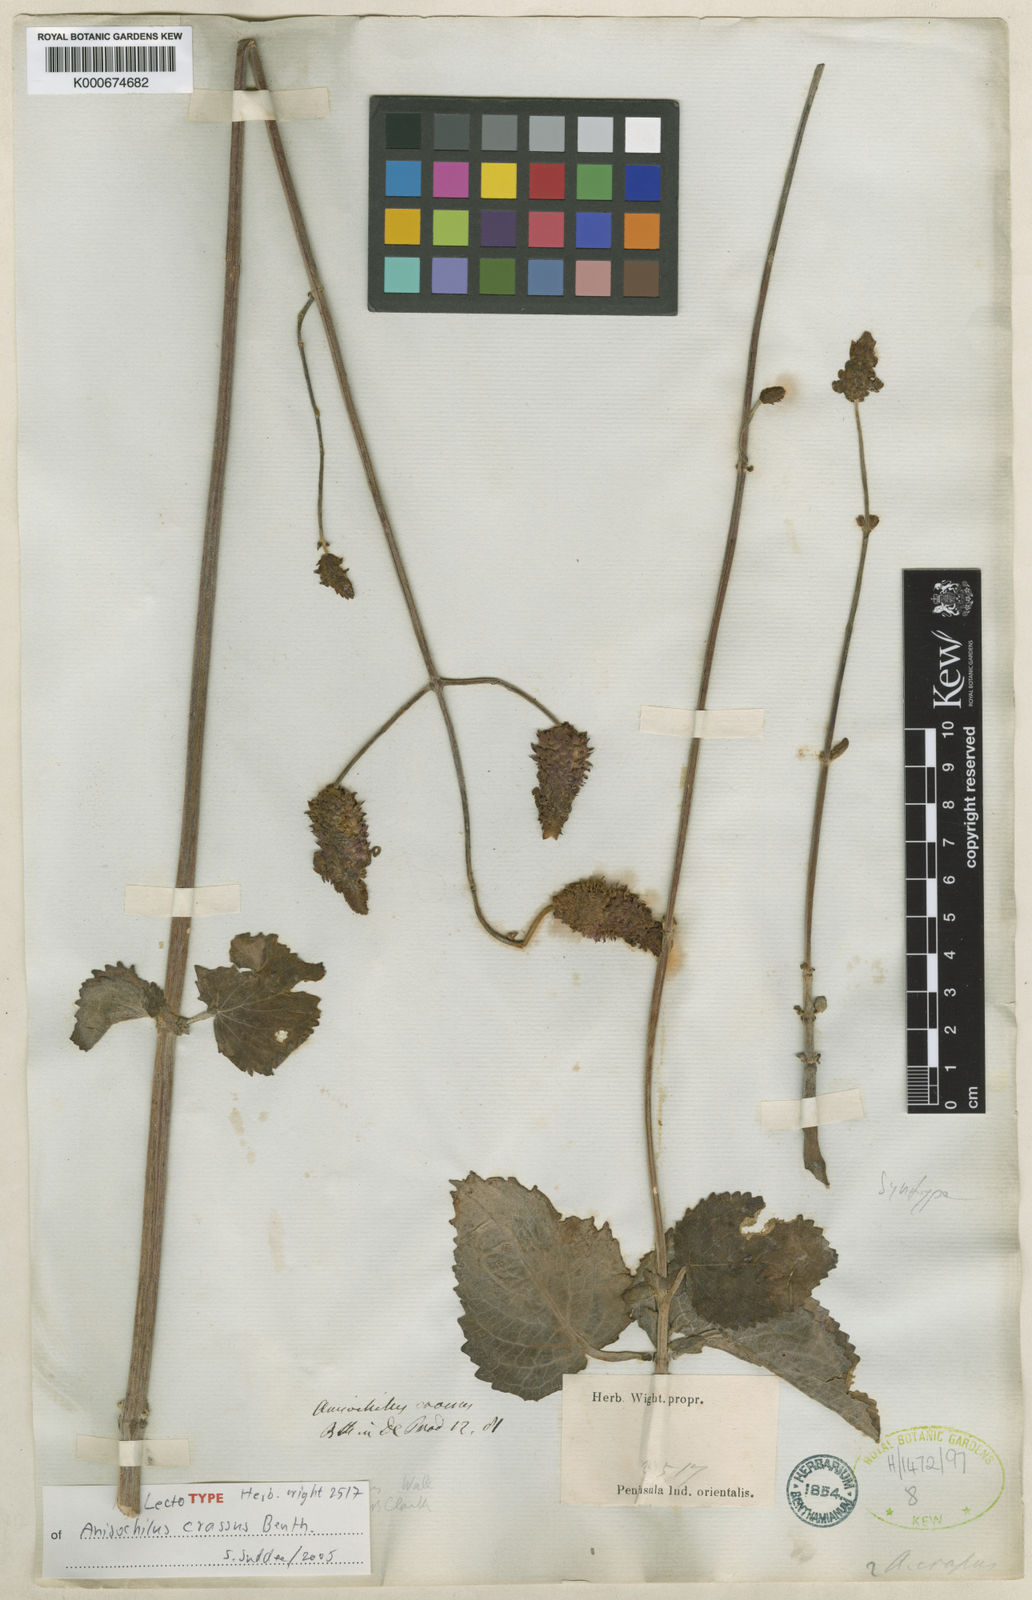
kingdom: Plantae
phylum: Tracheophyta
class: Magnoliopsida
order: Lamiales
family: Lamiaceae
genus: Coleus
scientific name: Coleus strobilifer
